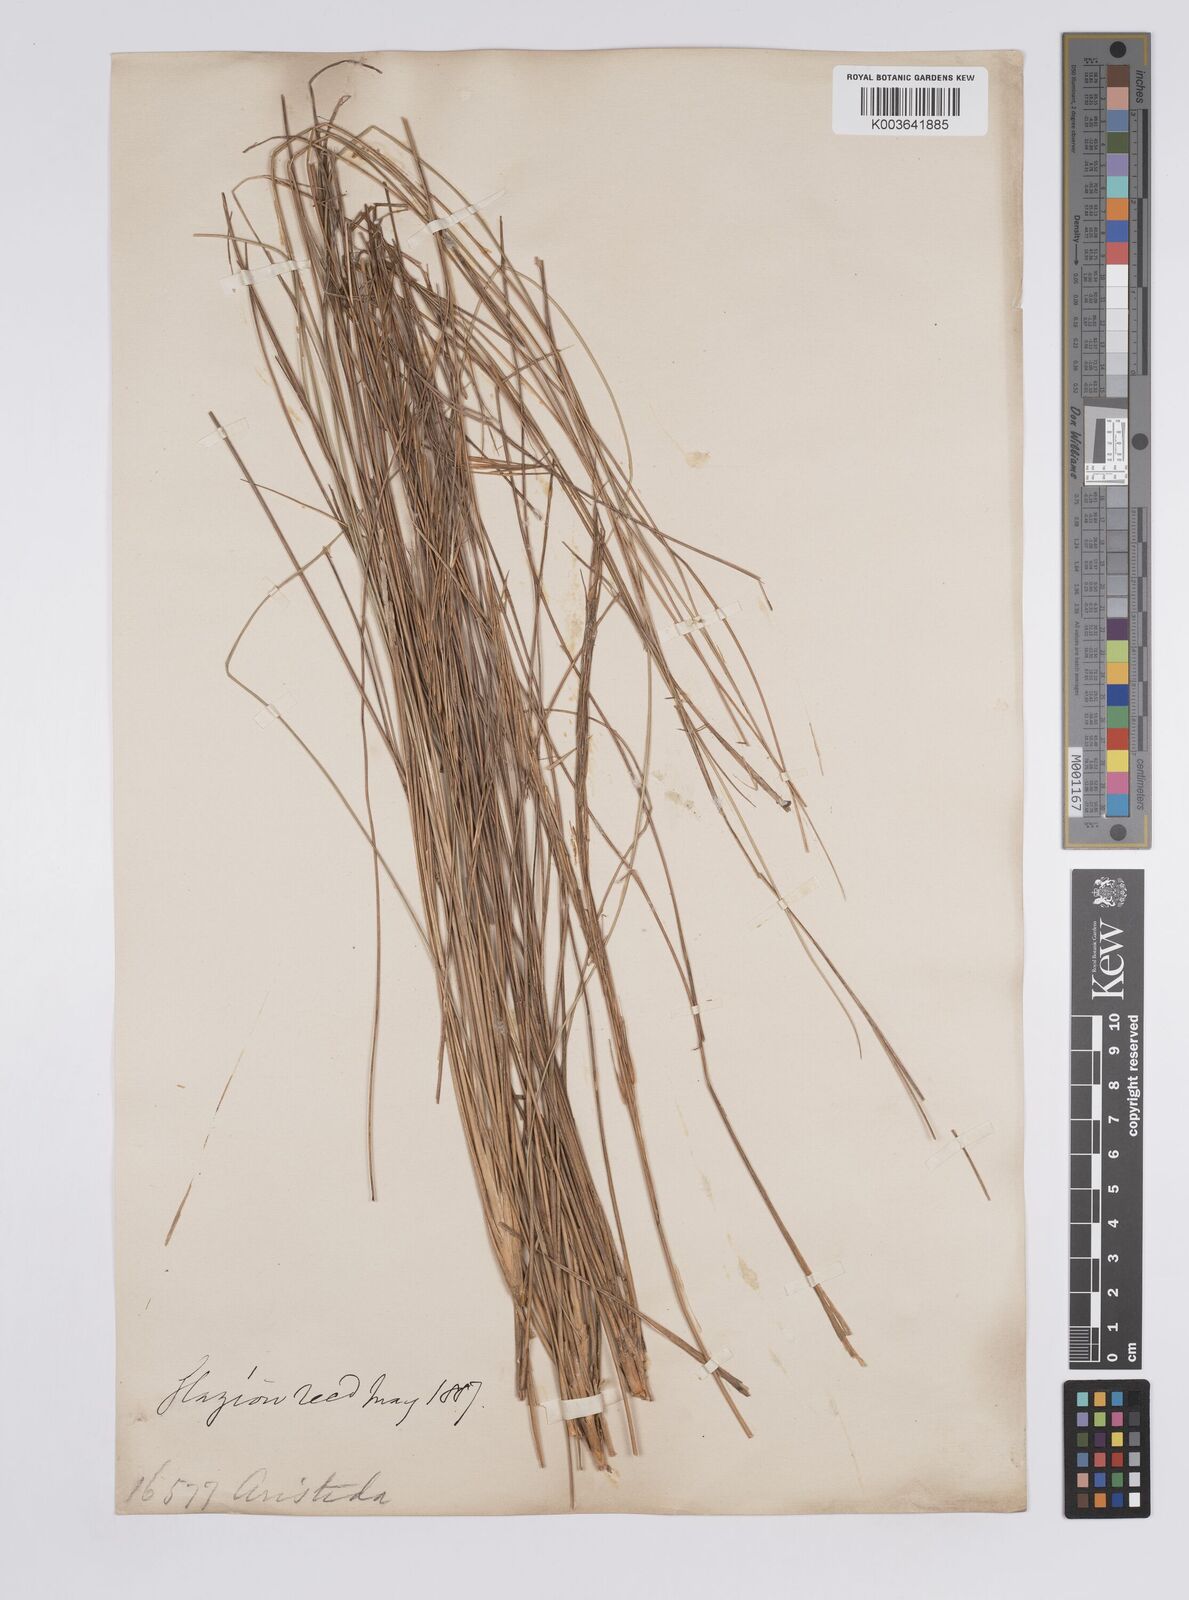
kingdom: Plantae
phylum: Tracheophyta
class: Liliopsida
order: Poales
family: Poaceae
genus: Aristida
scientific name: Aristida pallens
